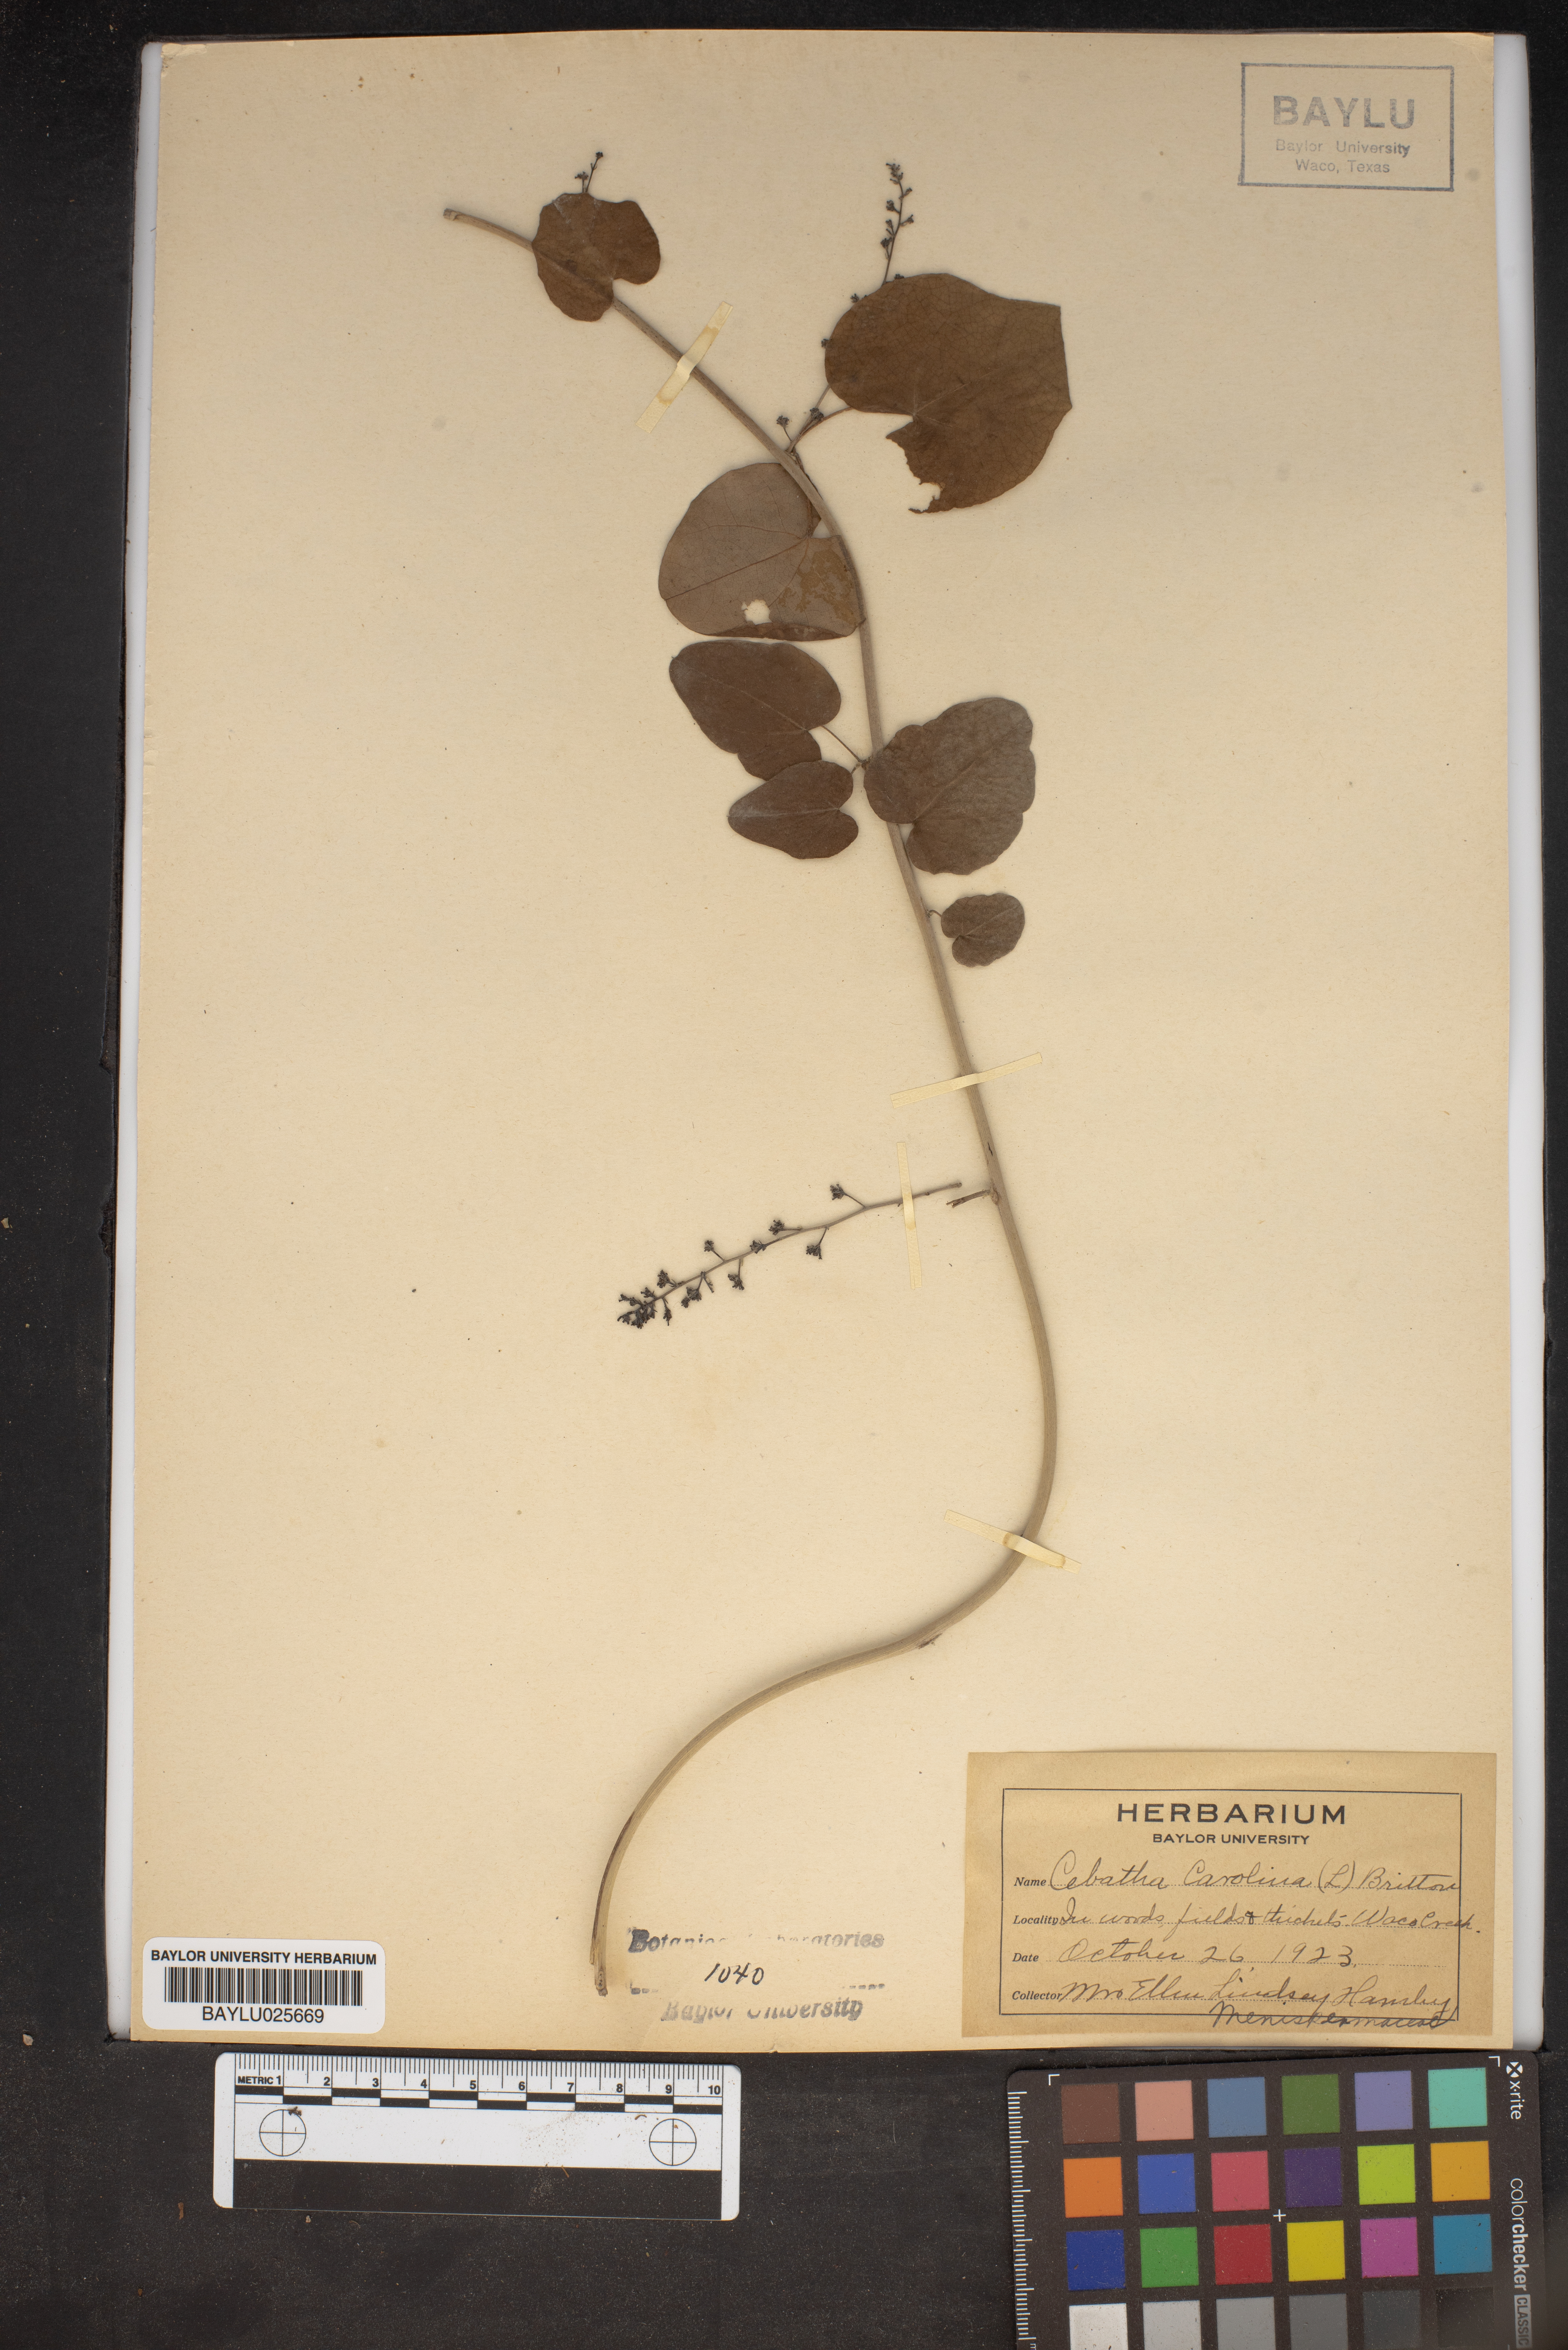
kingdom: Plantae
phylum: Tracheophyta
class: Magnoliopsida
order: Ranunculales
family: Menispermaceae
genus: Cocculus
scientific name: Cocculus carolinus
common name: Carolina moonseed
